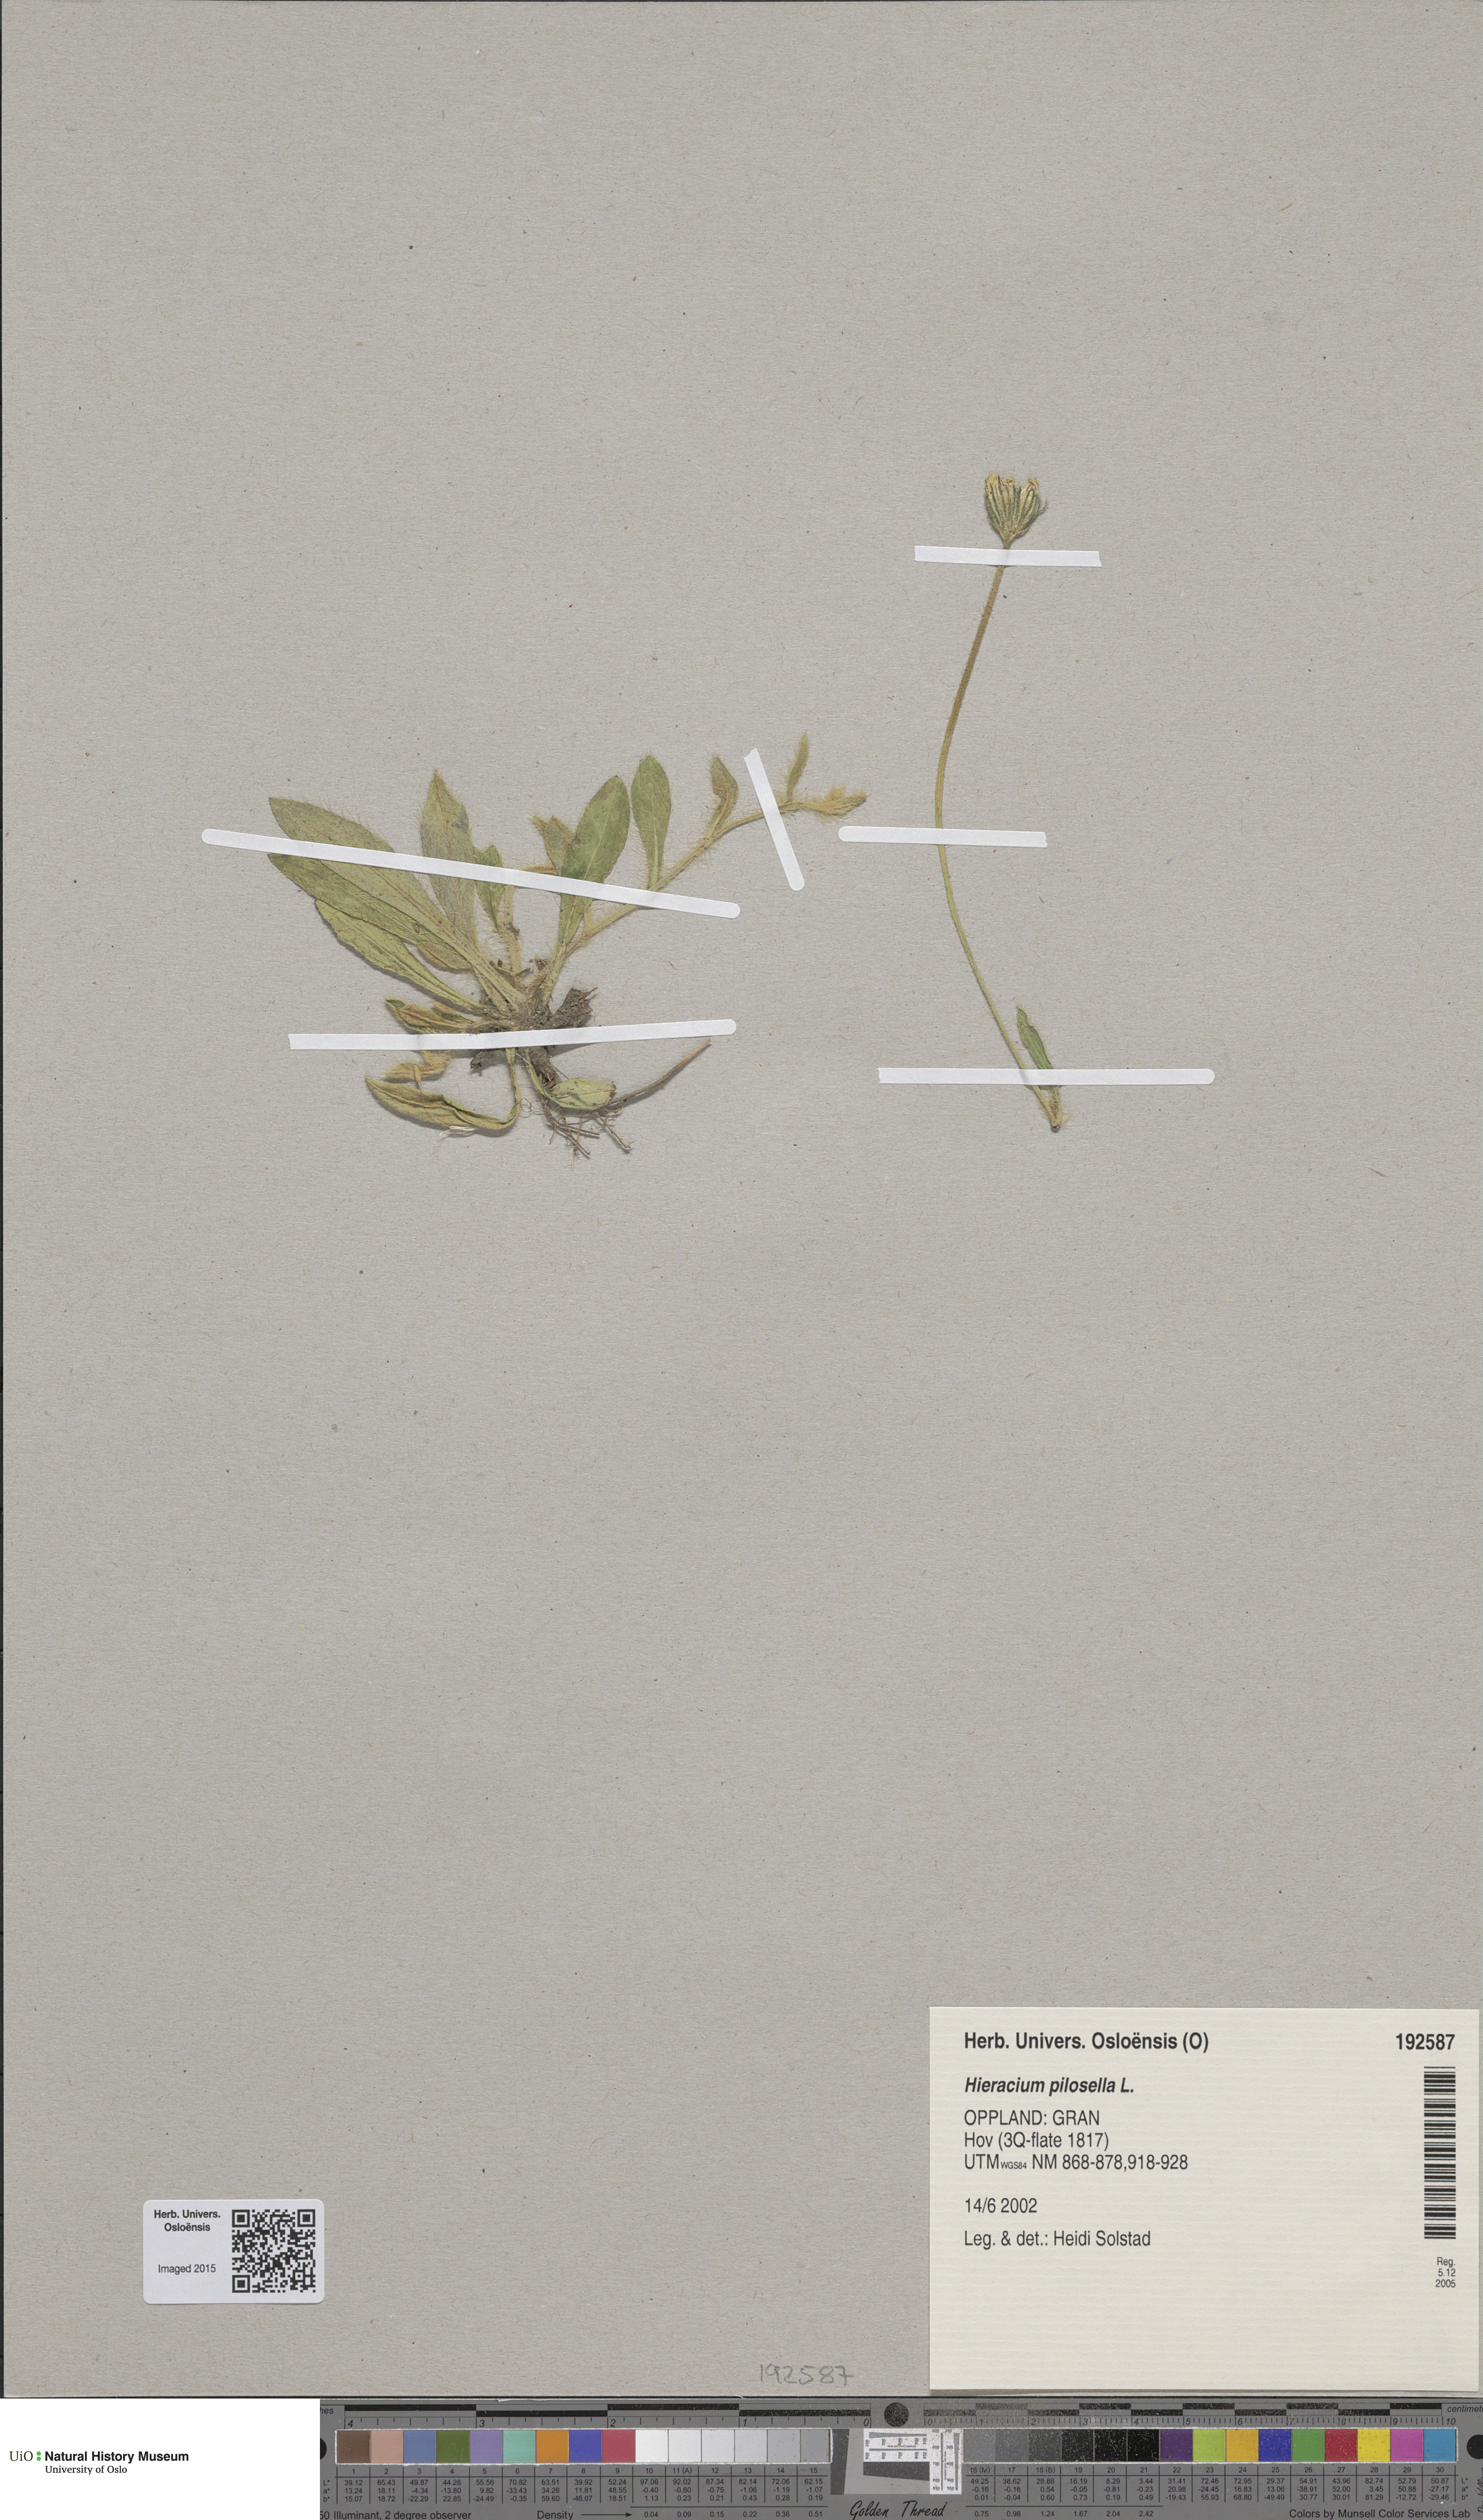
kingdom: Plantae
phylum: Tracheophyta
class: Magnoliopsida
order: Asterales
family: Asteraceae
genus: Pilosella
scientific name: Pilosella officinarum
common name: Mouse-ear hawkweed
